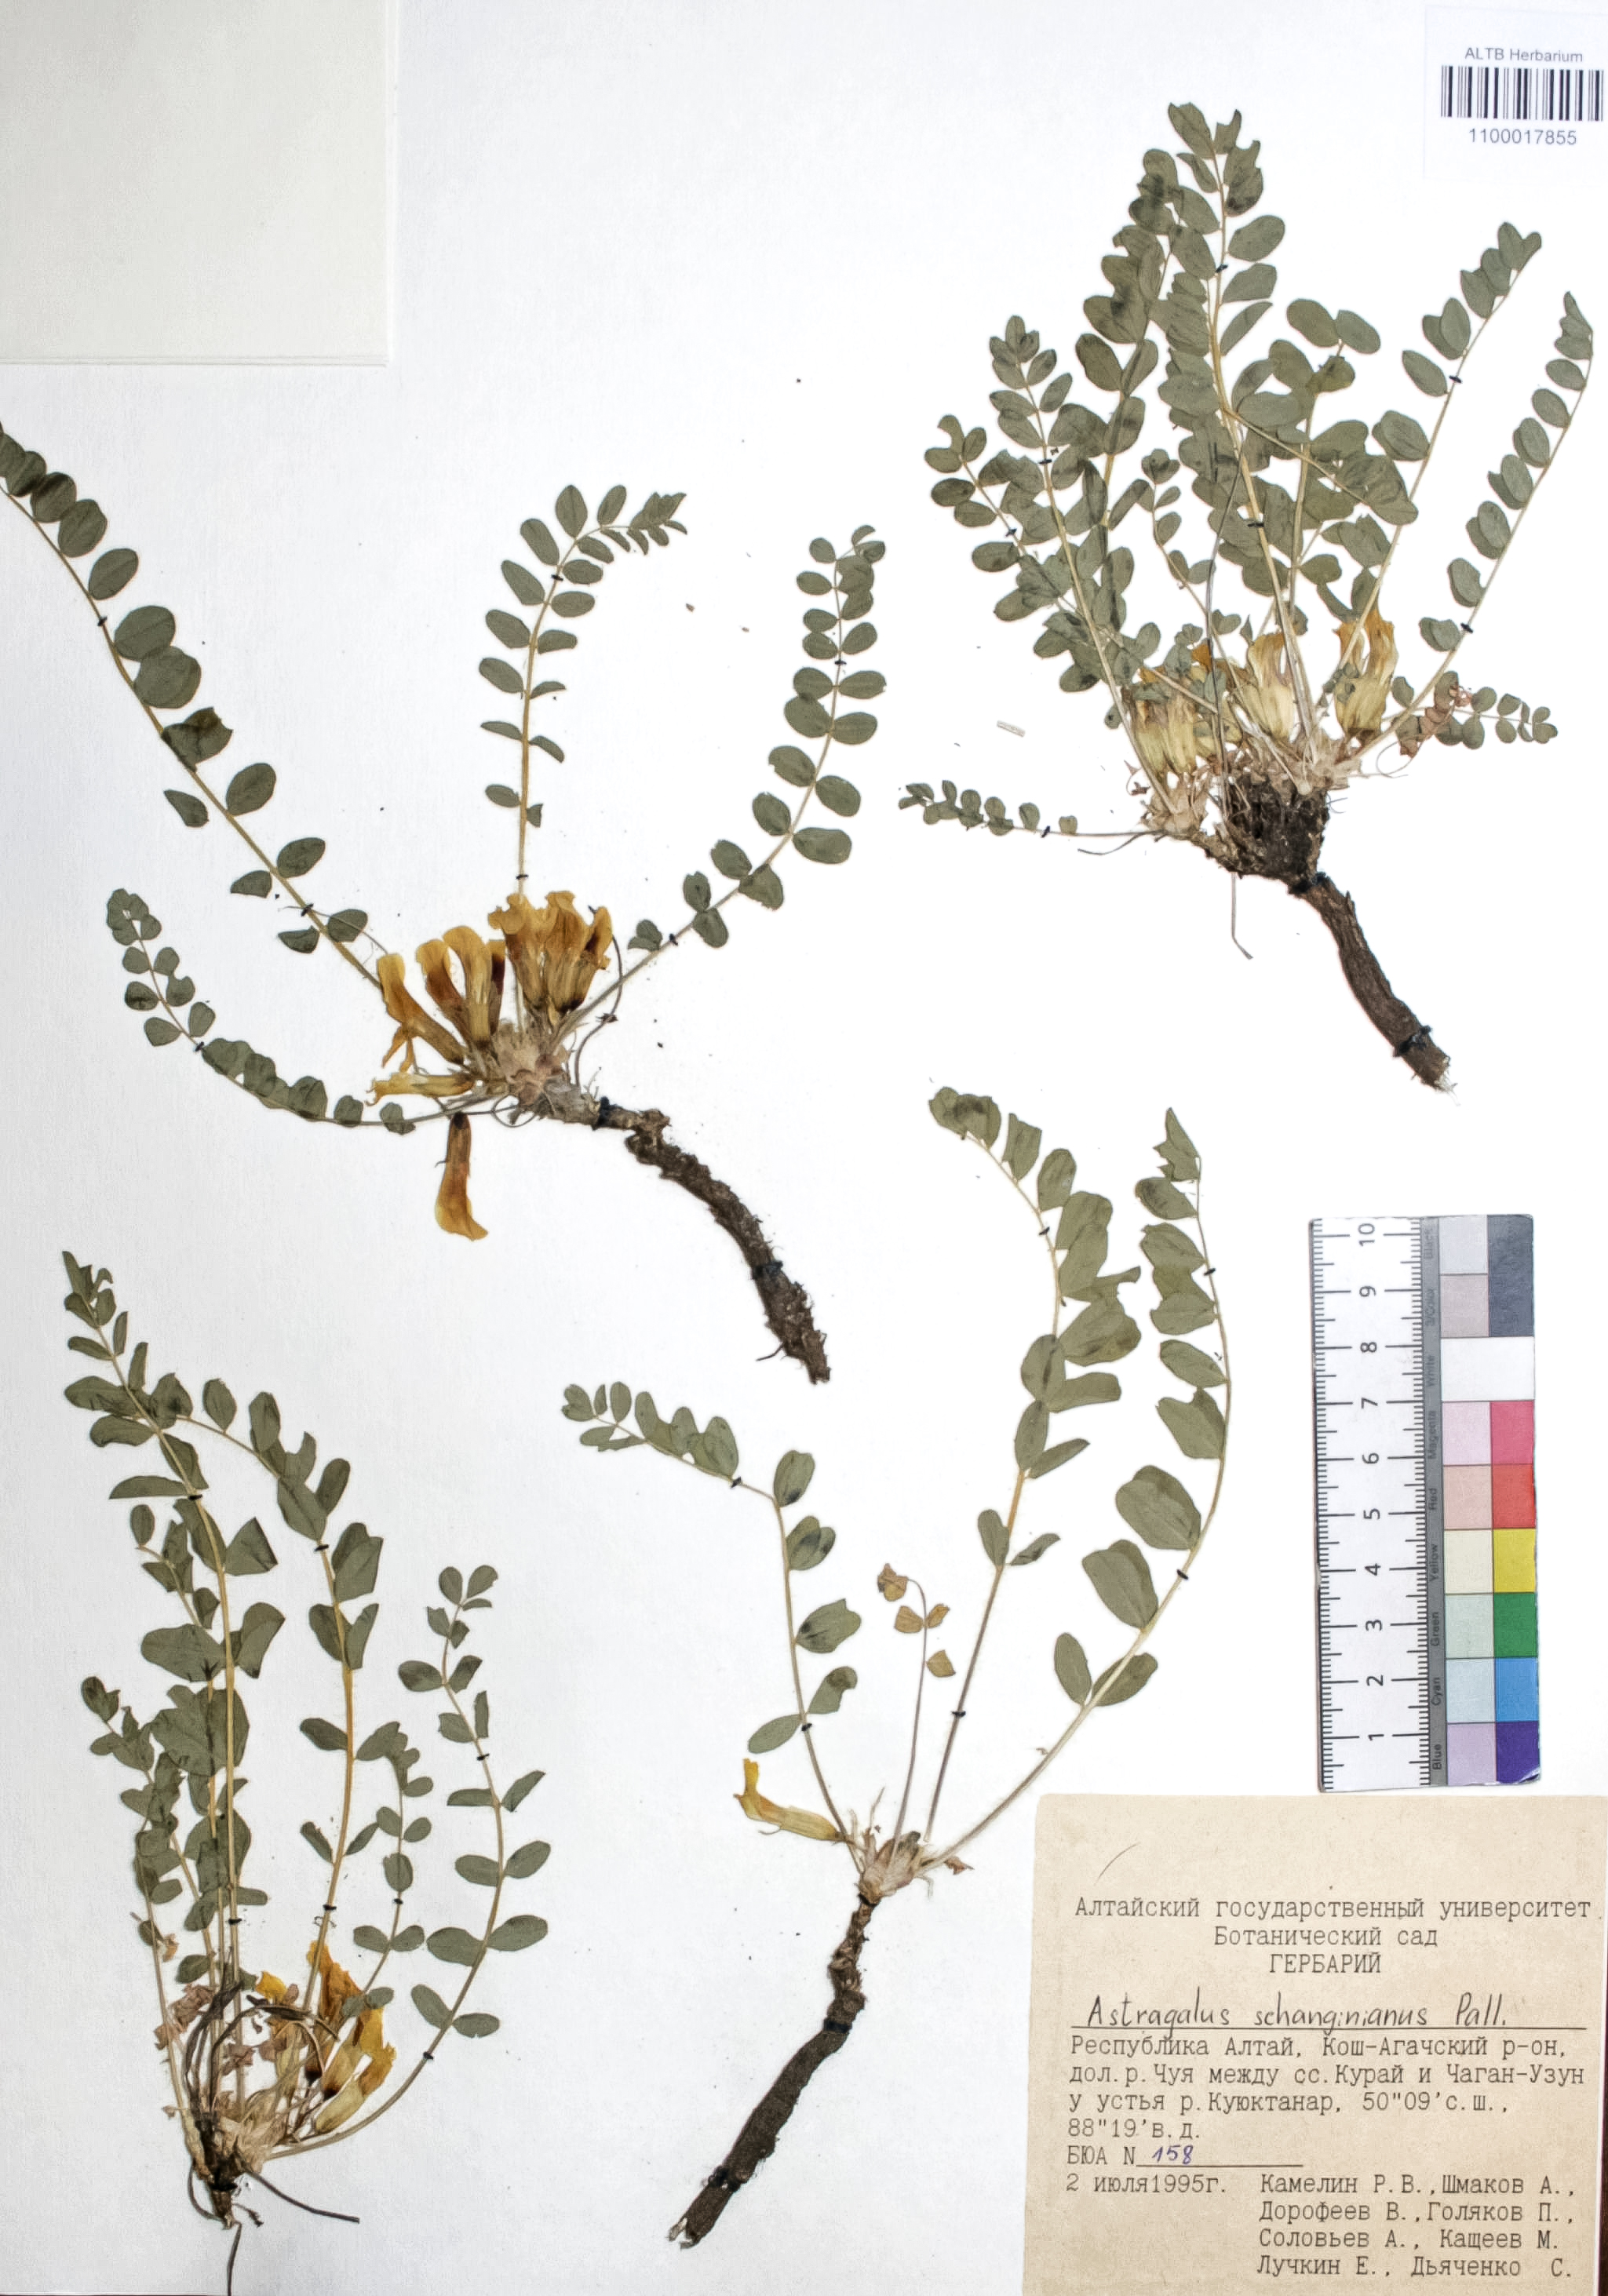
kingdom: Plantae
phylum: Tracheophyta
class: Magnoliopsida
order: Fabales
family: Fabaceae
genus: Astragalus
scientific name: Astragalus schanginianus
